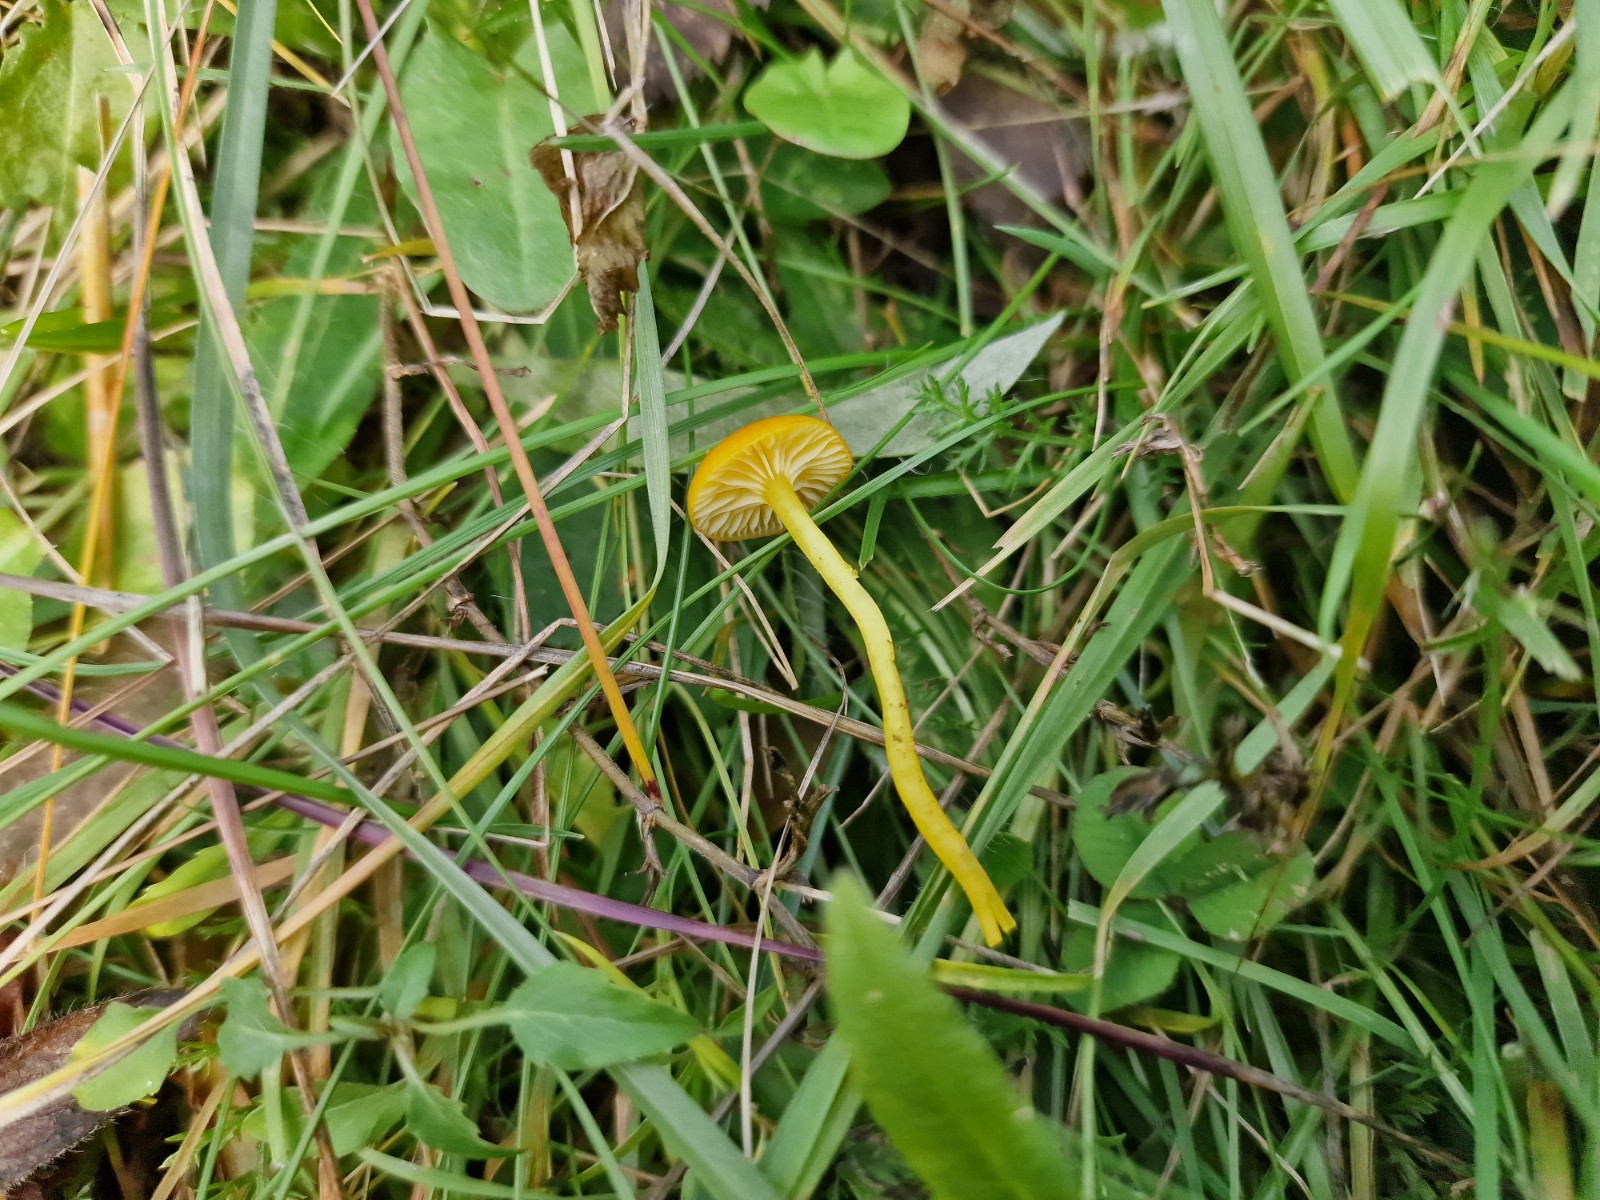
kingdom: Fungi
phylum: Basidiomycota
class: Agaricomycetes
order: Agaricales
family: Hygrophoraceae
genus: Hygrocybe
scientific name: Hygrocybe ceracea
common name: voksgul vokshat
